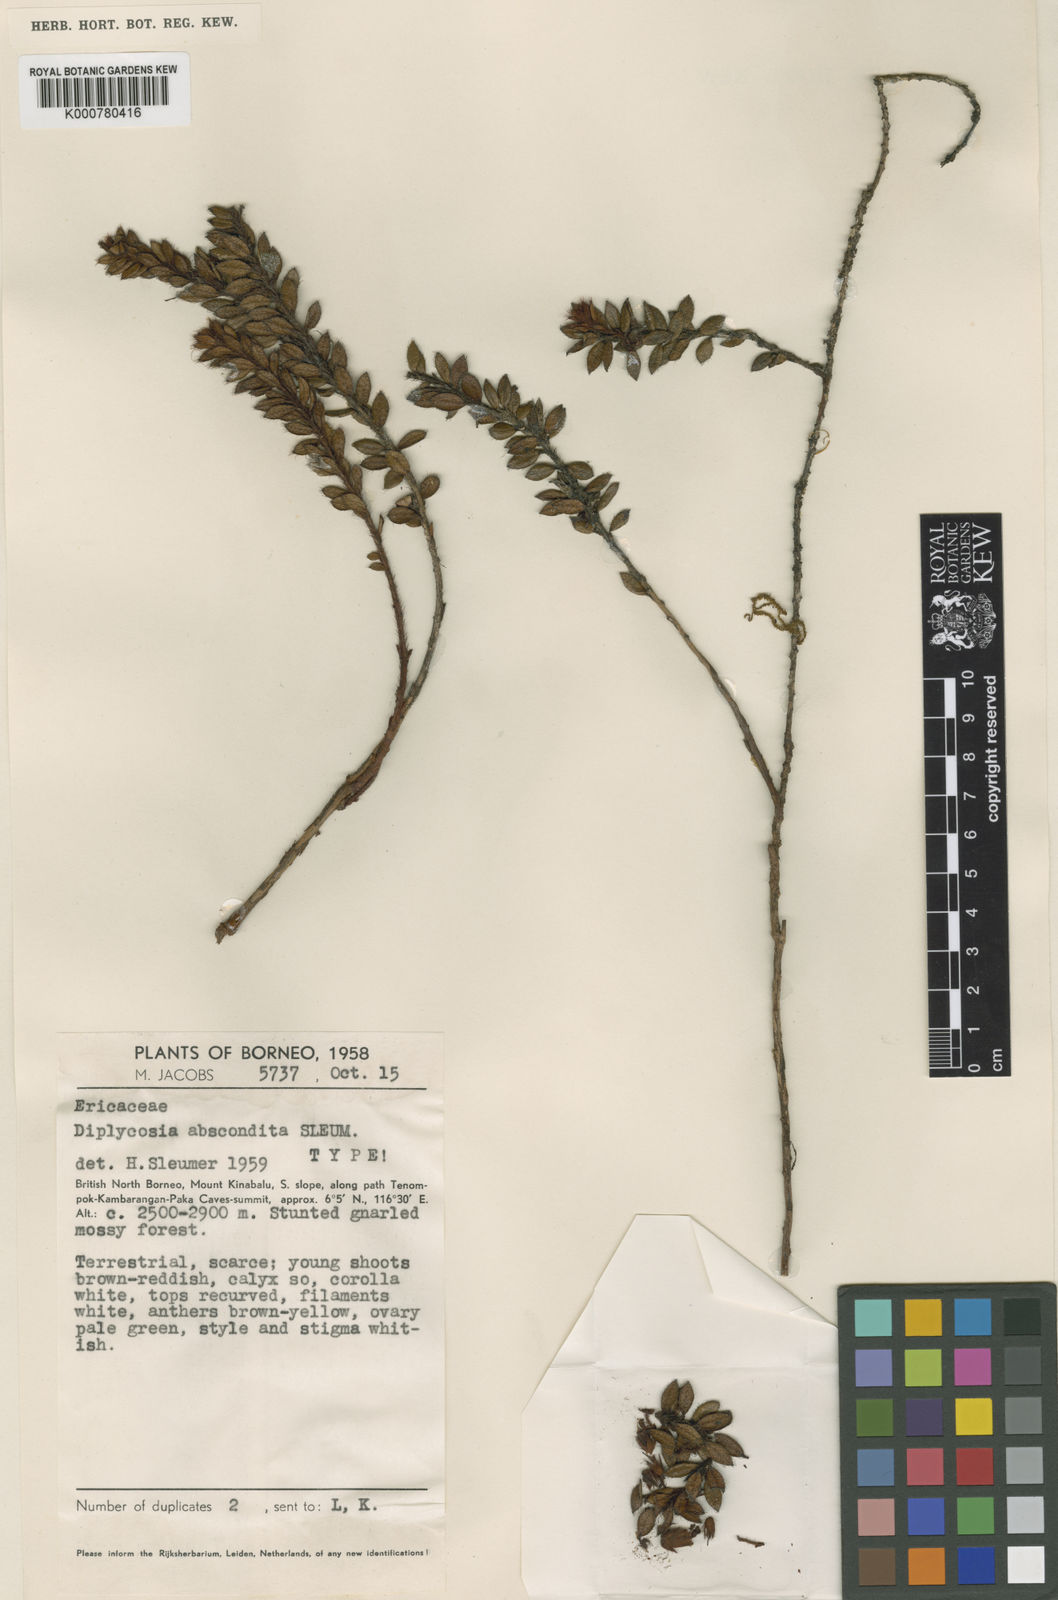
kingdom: Plantae
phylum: Tracheophyta
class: Magnoliopsida
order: Ericales
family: Ericaceae
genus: Gaultheria
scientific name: Gaultheria abscondita
